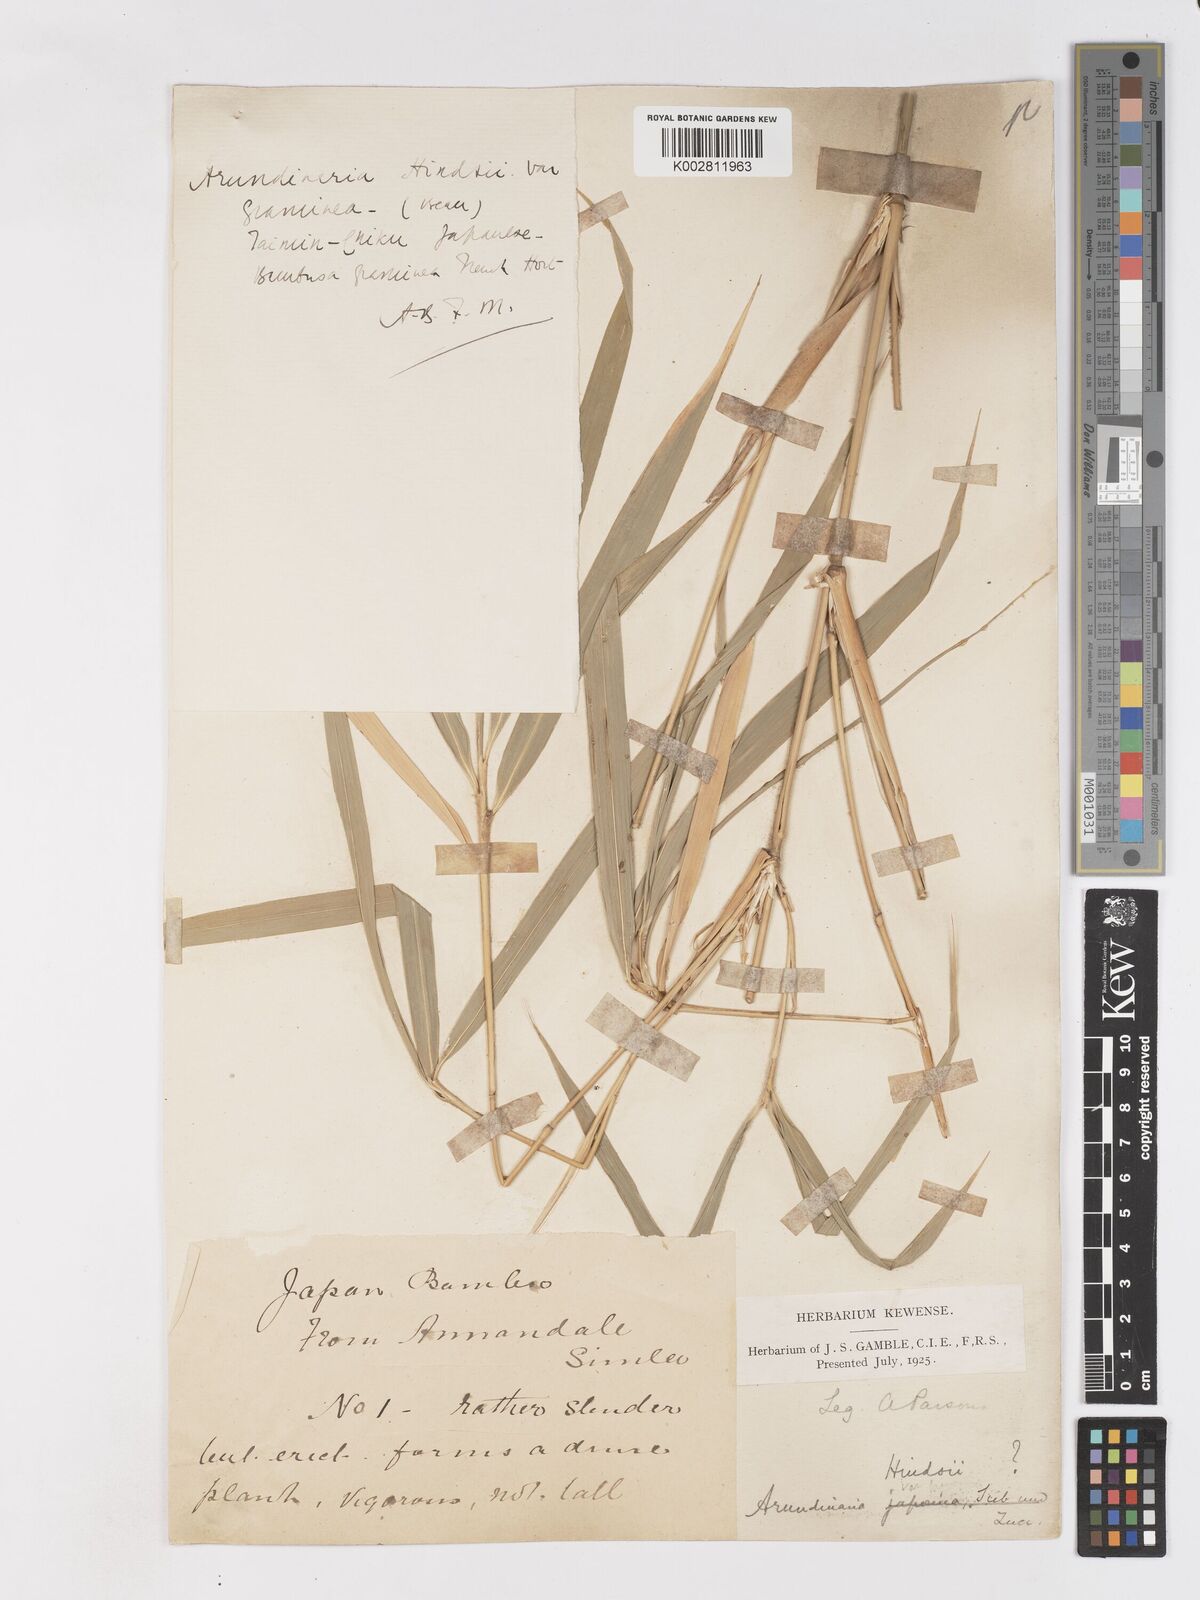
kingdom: Plantae
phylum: Tracheophyta
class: Liliopsida
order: Poales
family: Poaceae
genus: Pleioblastus
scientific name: Pleioblastus gramineus
